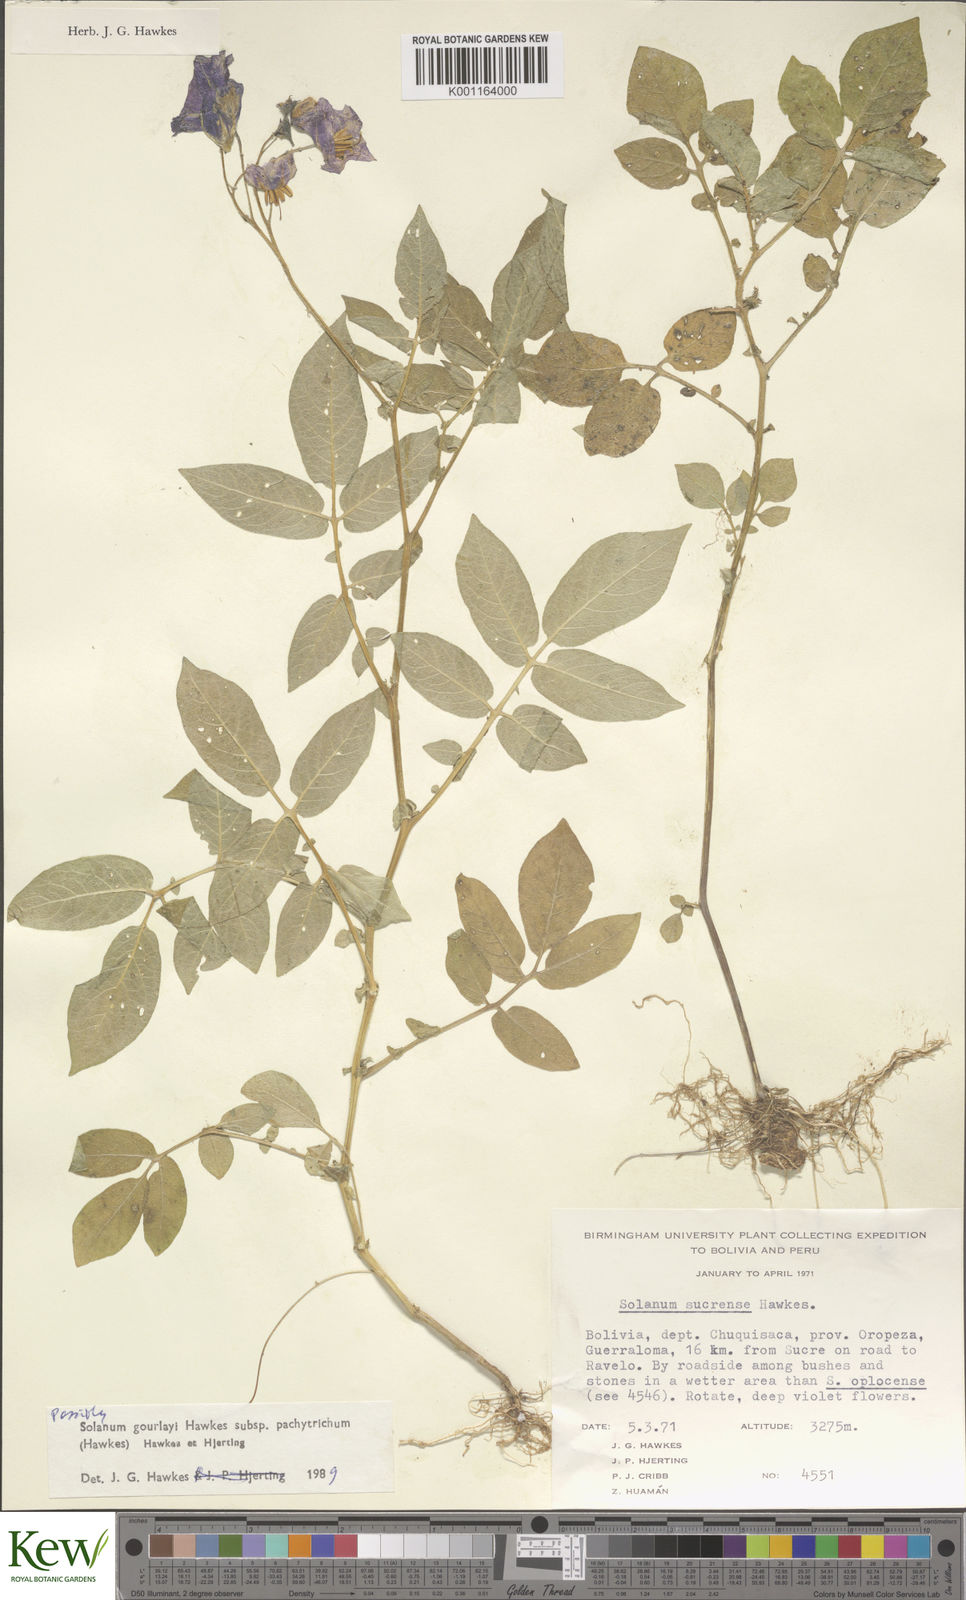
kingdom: Plantae
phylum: Tracheophyta
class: Magnoliopsida
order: Solanales
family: Solanaceae
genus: Solanum
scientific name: Solanum brevicaule
